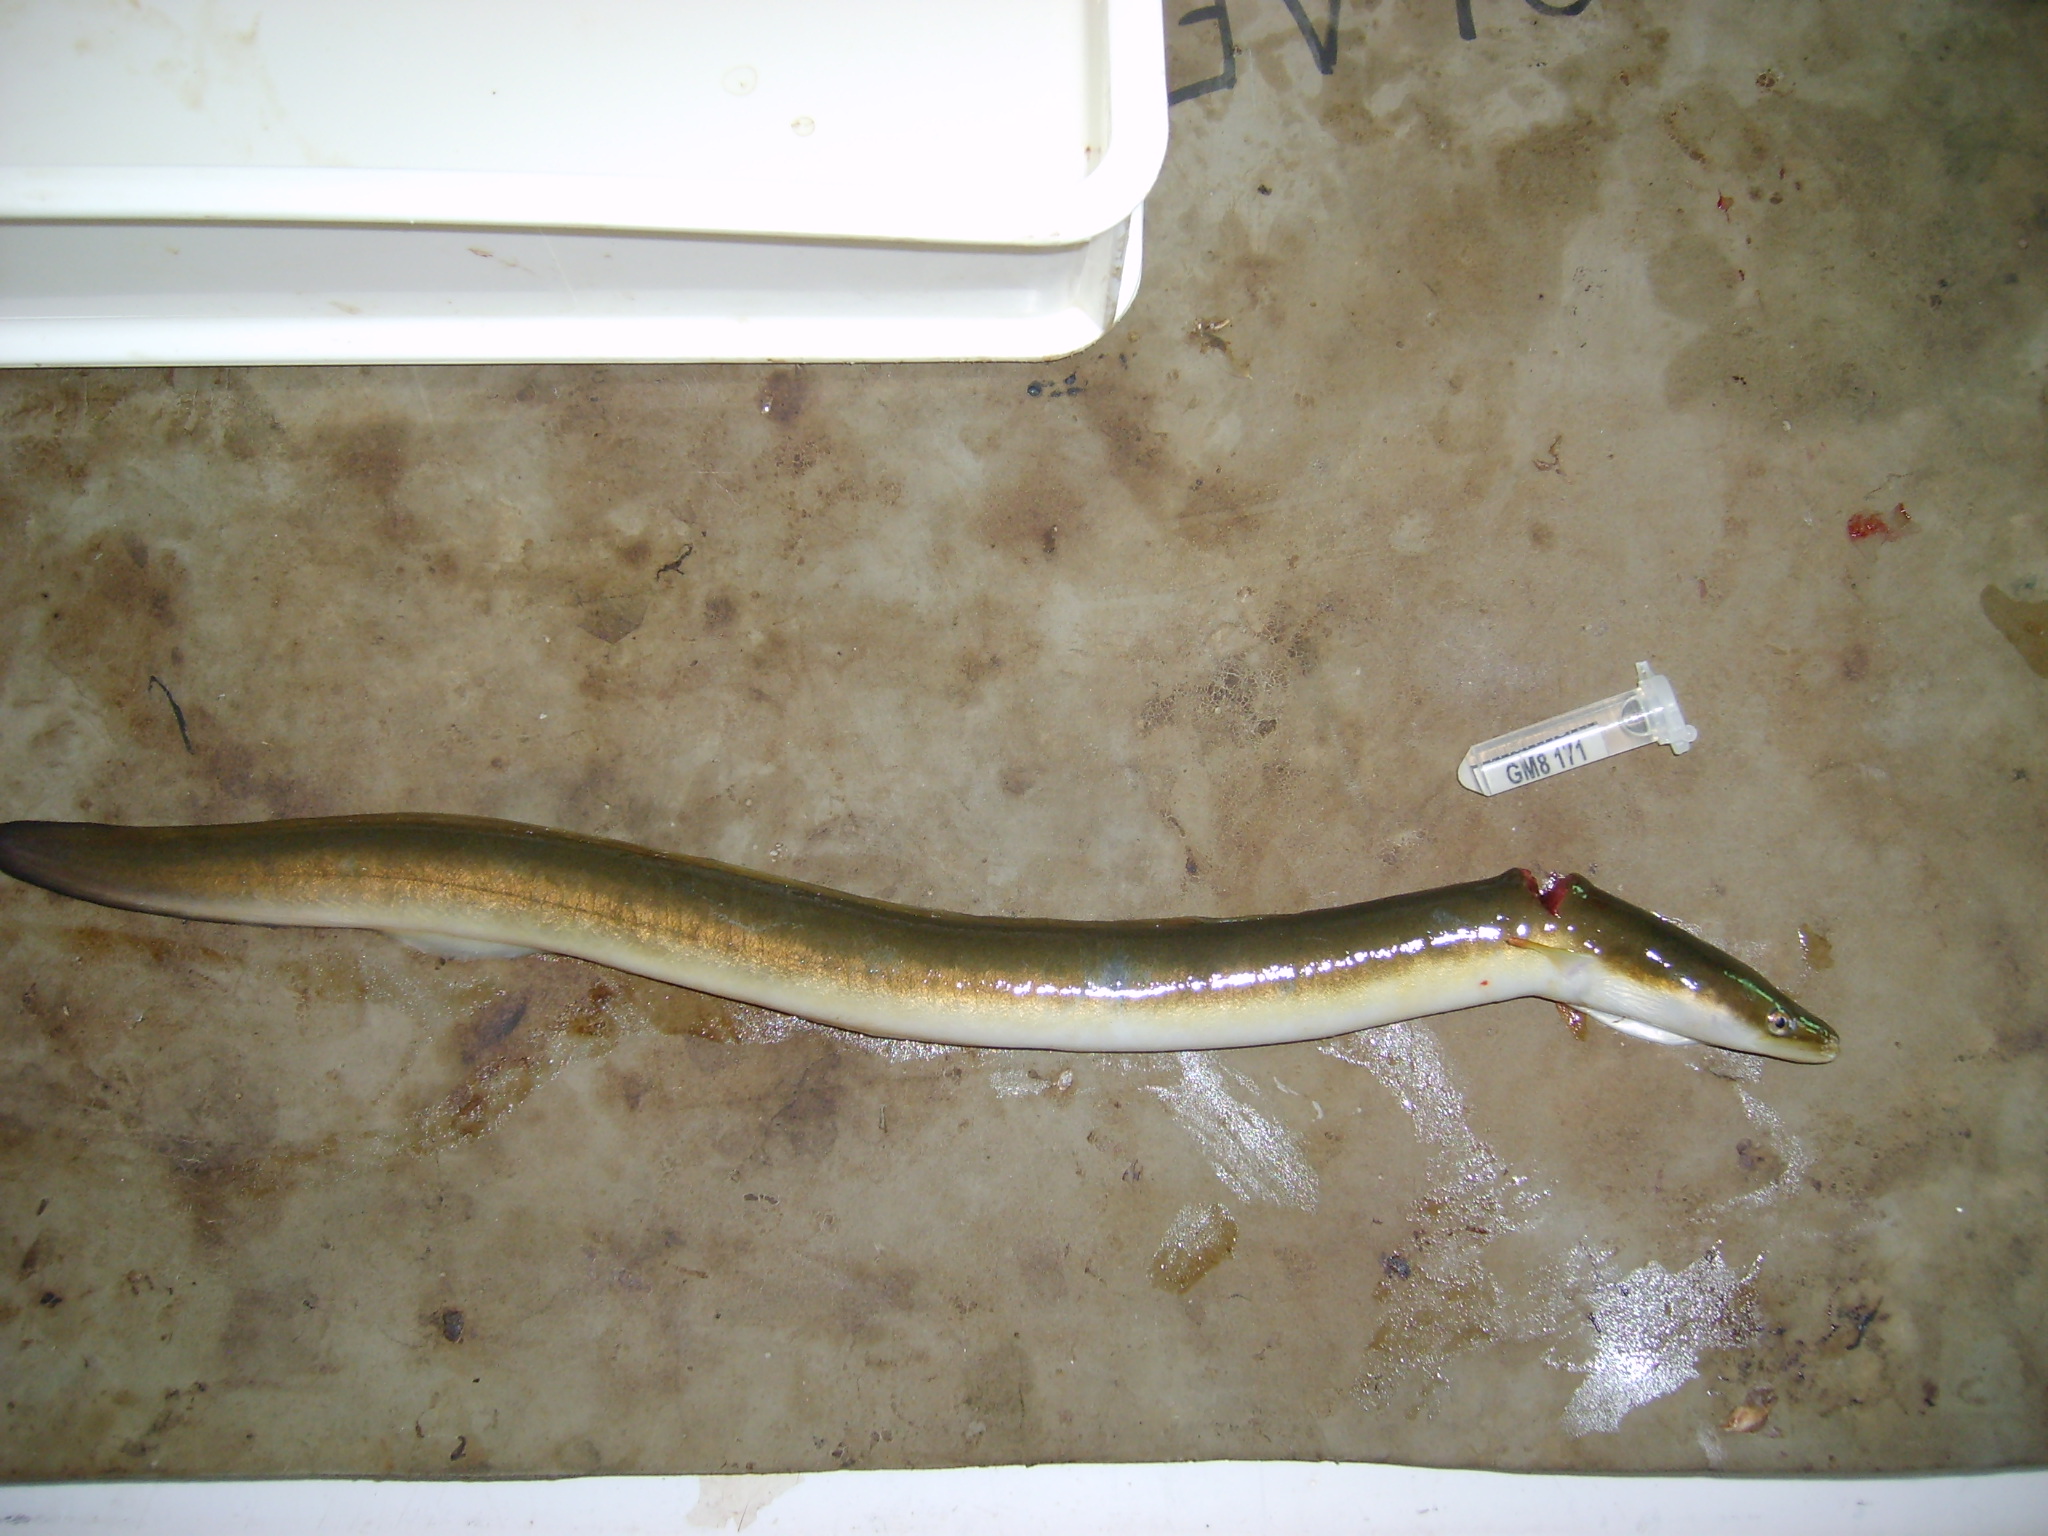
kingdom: Animalia
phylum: Chordata
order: Anguilliformes
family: Anguillidae
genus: Anguilla
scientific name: Anguilla mossambica
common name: African longfin eel
